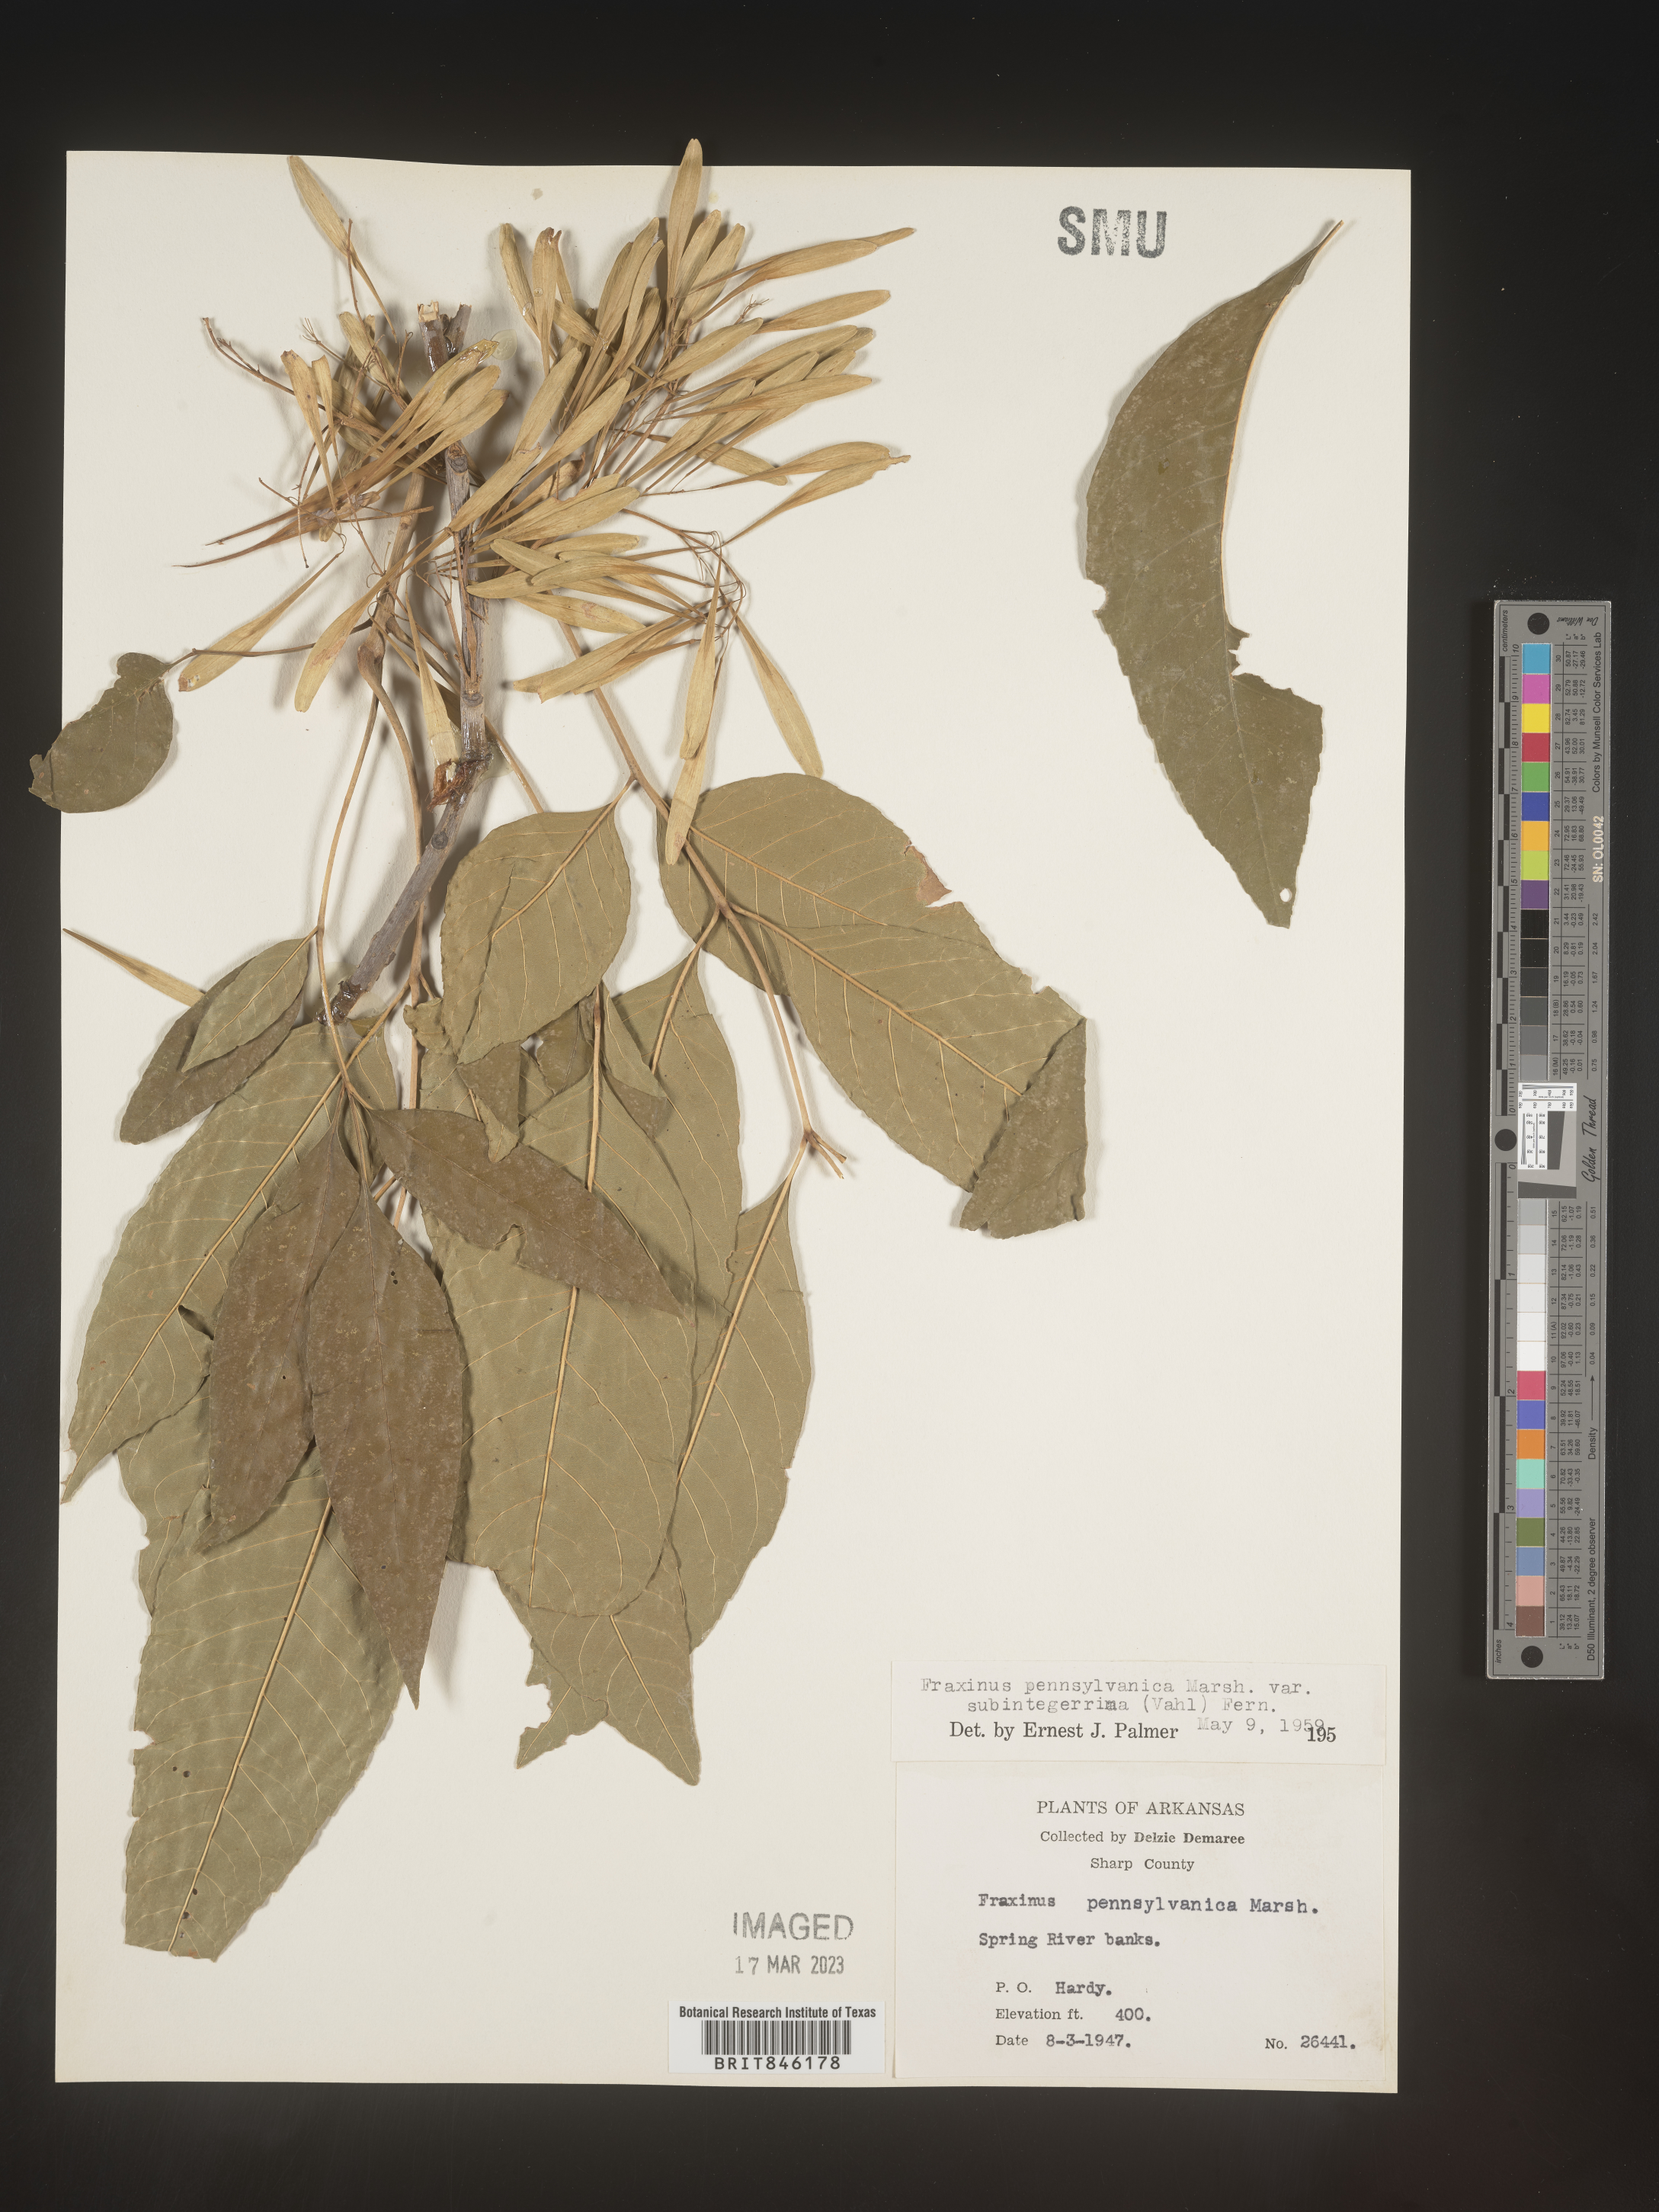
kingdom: Plantae
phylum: Tracheophyta
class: Magnoliopsida
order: Lamiales
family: Oleaceae
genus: Fraxinus
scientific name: Fraxinus pennsylvanica
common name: Green ash
